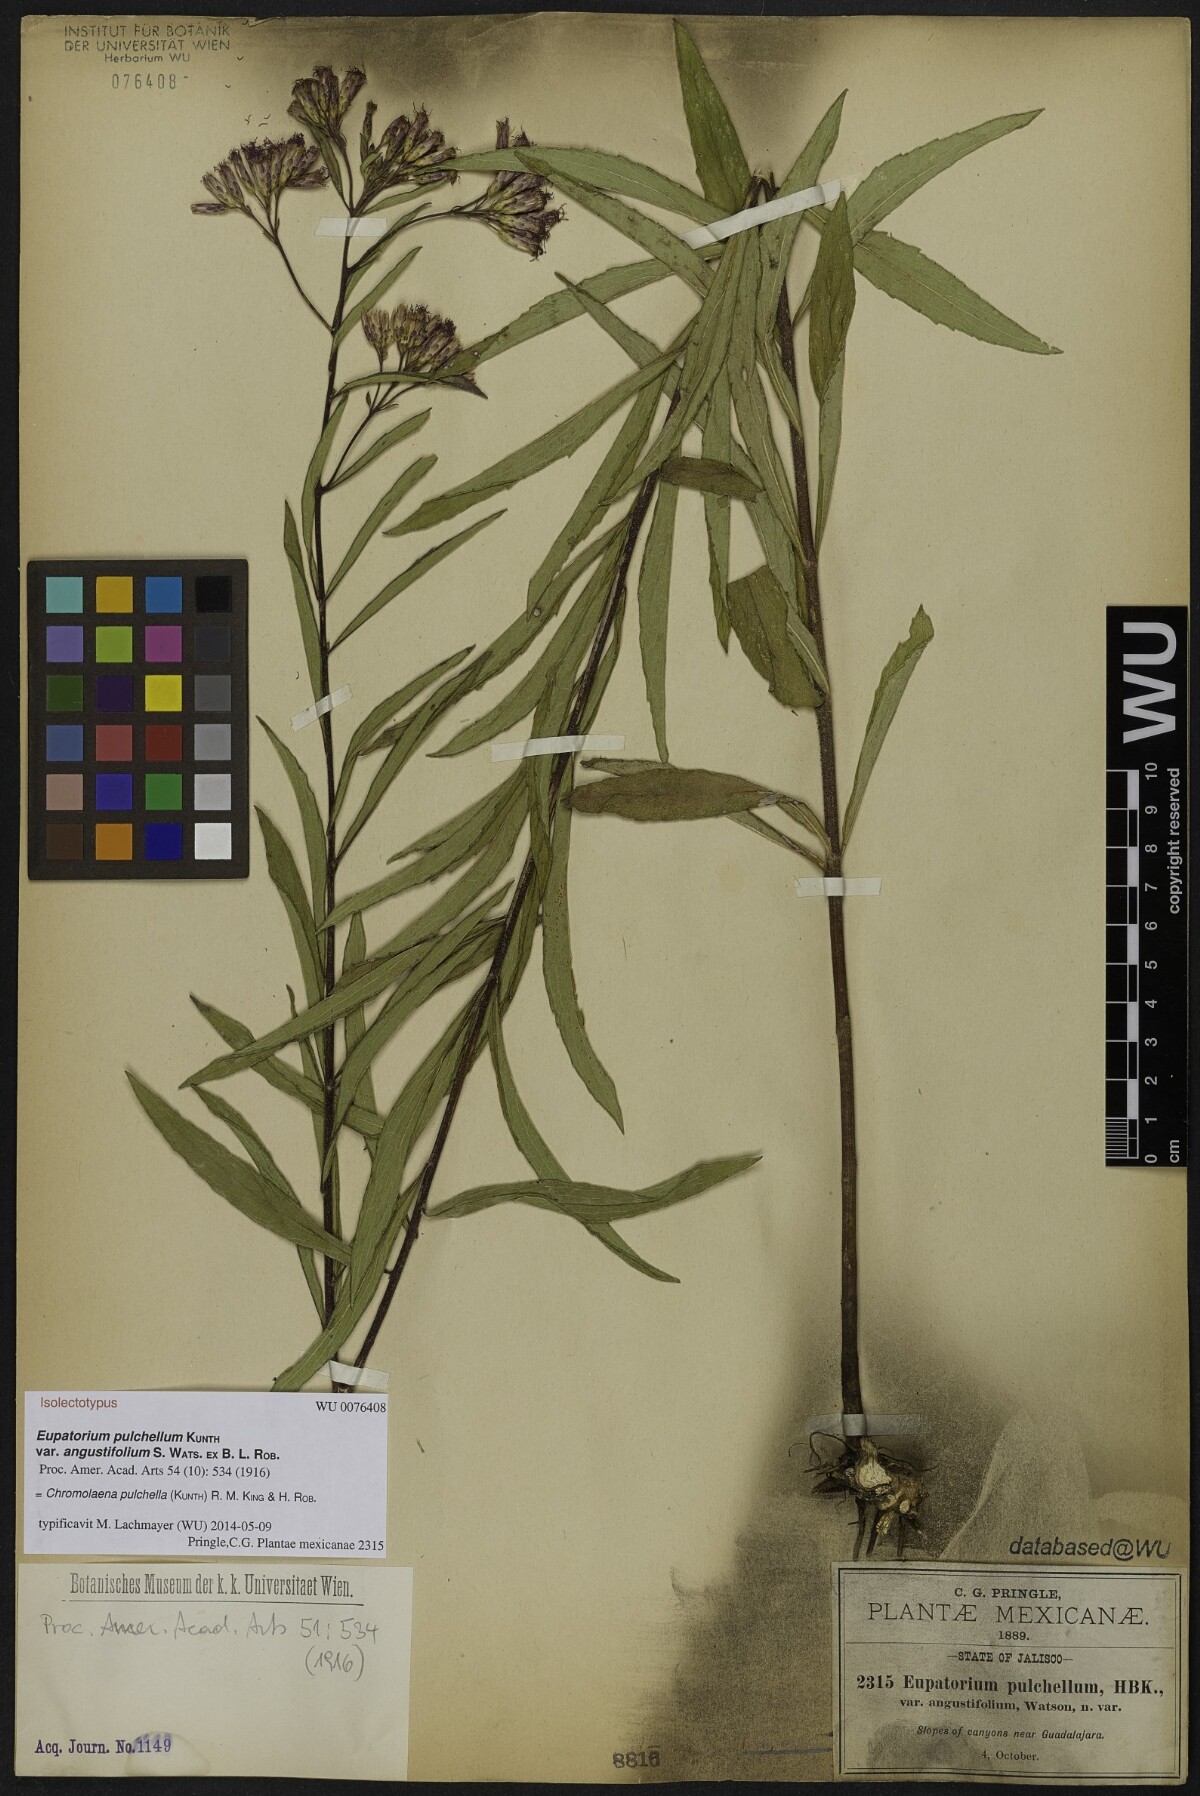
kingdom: Plantae
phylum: Tracheophyta
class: Magnoliopsida
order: Asterales
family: Asteraceae
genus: Chromolaena
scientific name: Chromolaena pulchella
